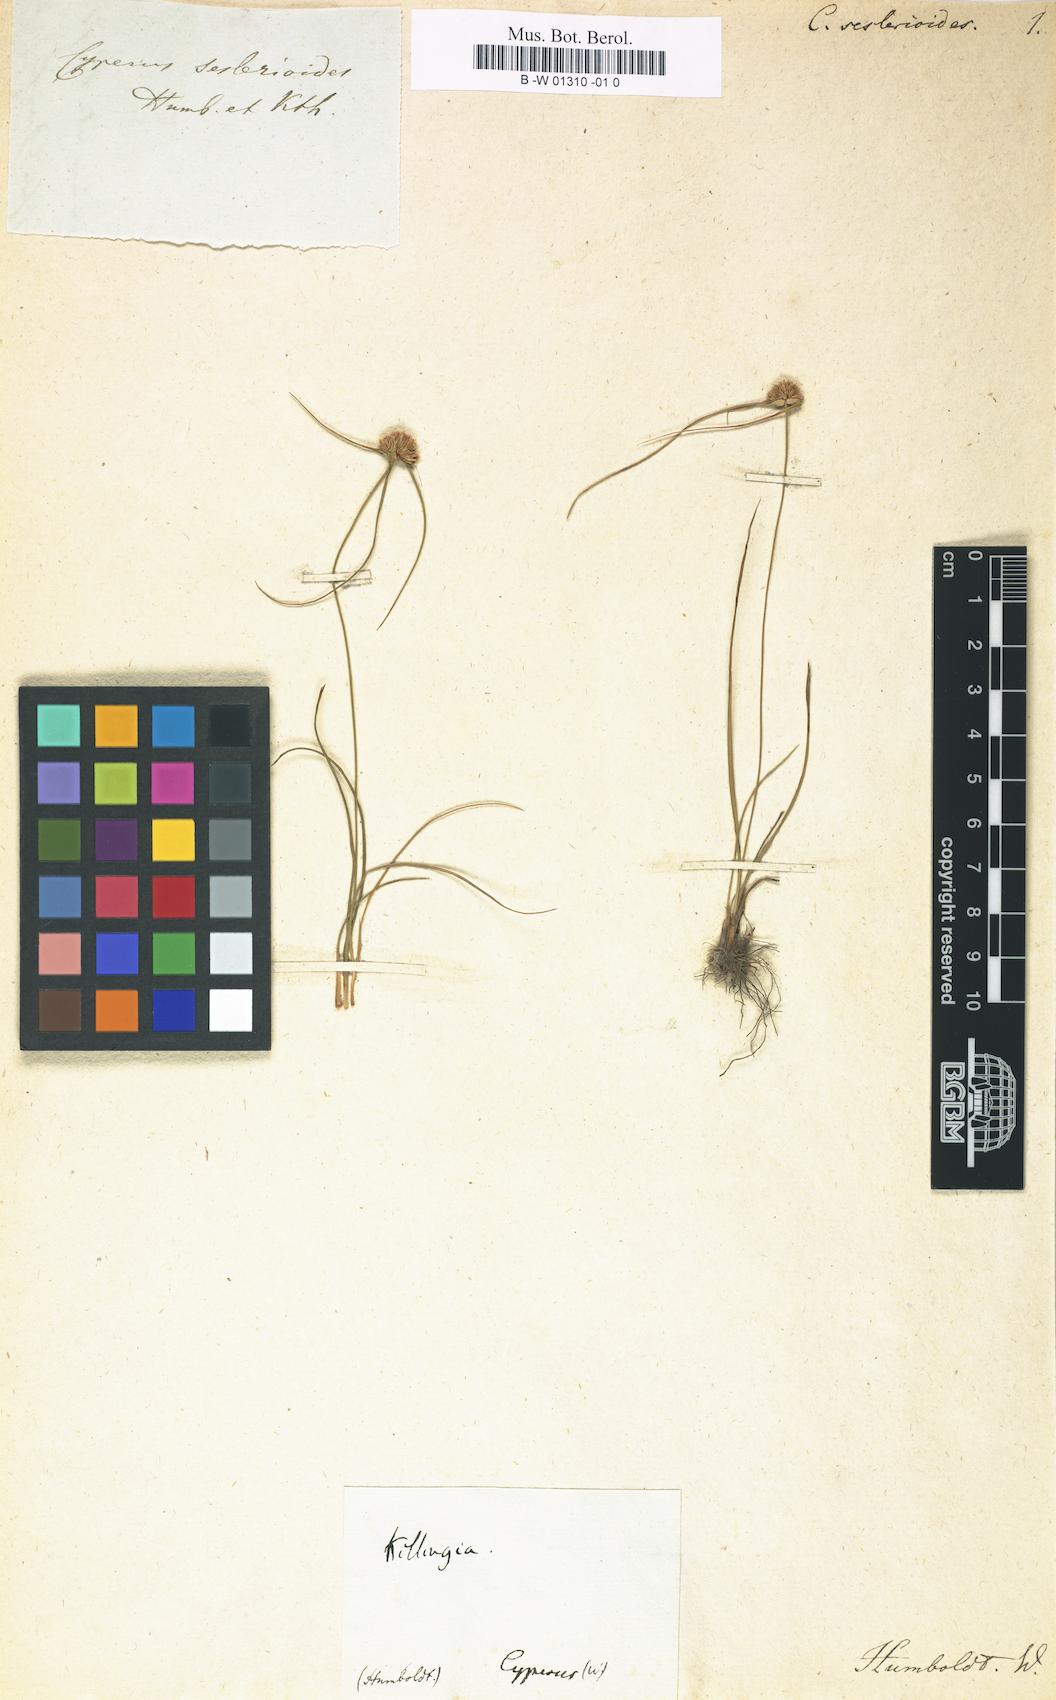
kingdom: Plantae
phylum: Tracheophyta
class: Liliopsida
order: Poales
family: Cyperaceae
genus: Cyperus
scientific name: Cyperus seslerioides
